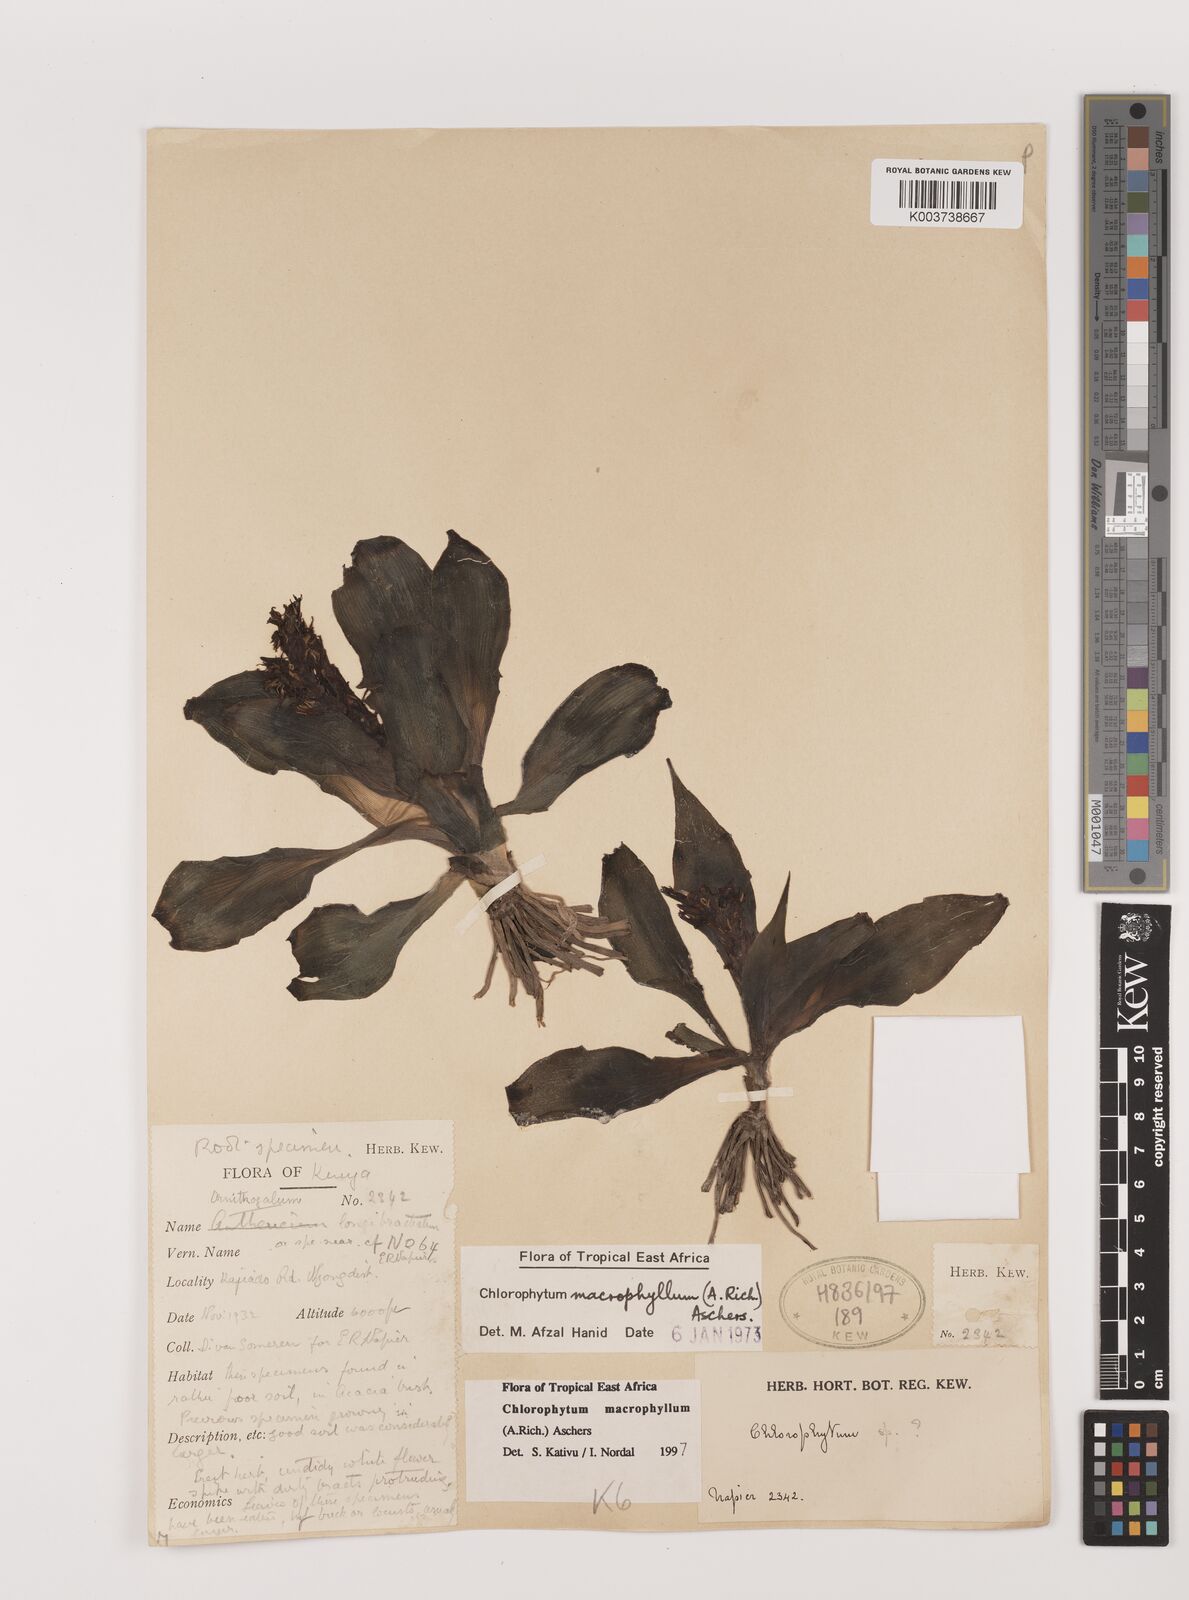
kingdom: Plantae
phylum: Tracheophyta
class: Liliopsida
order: Asparagales
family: Asparagaceae
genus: Chlorophytum
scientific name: Chlorophytum macrophyllum
